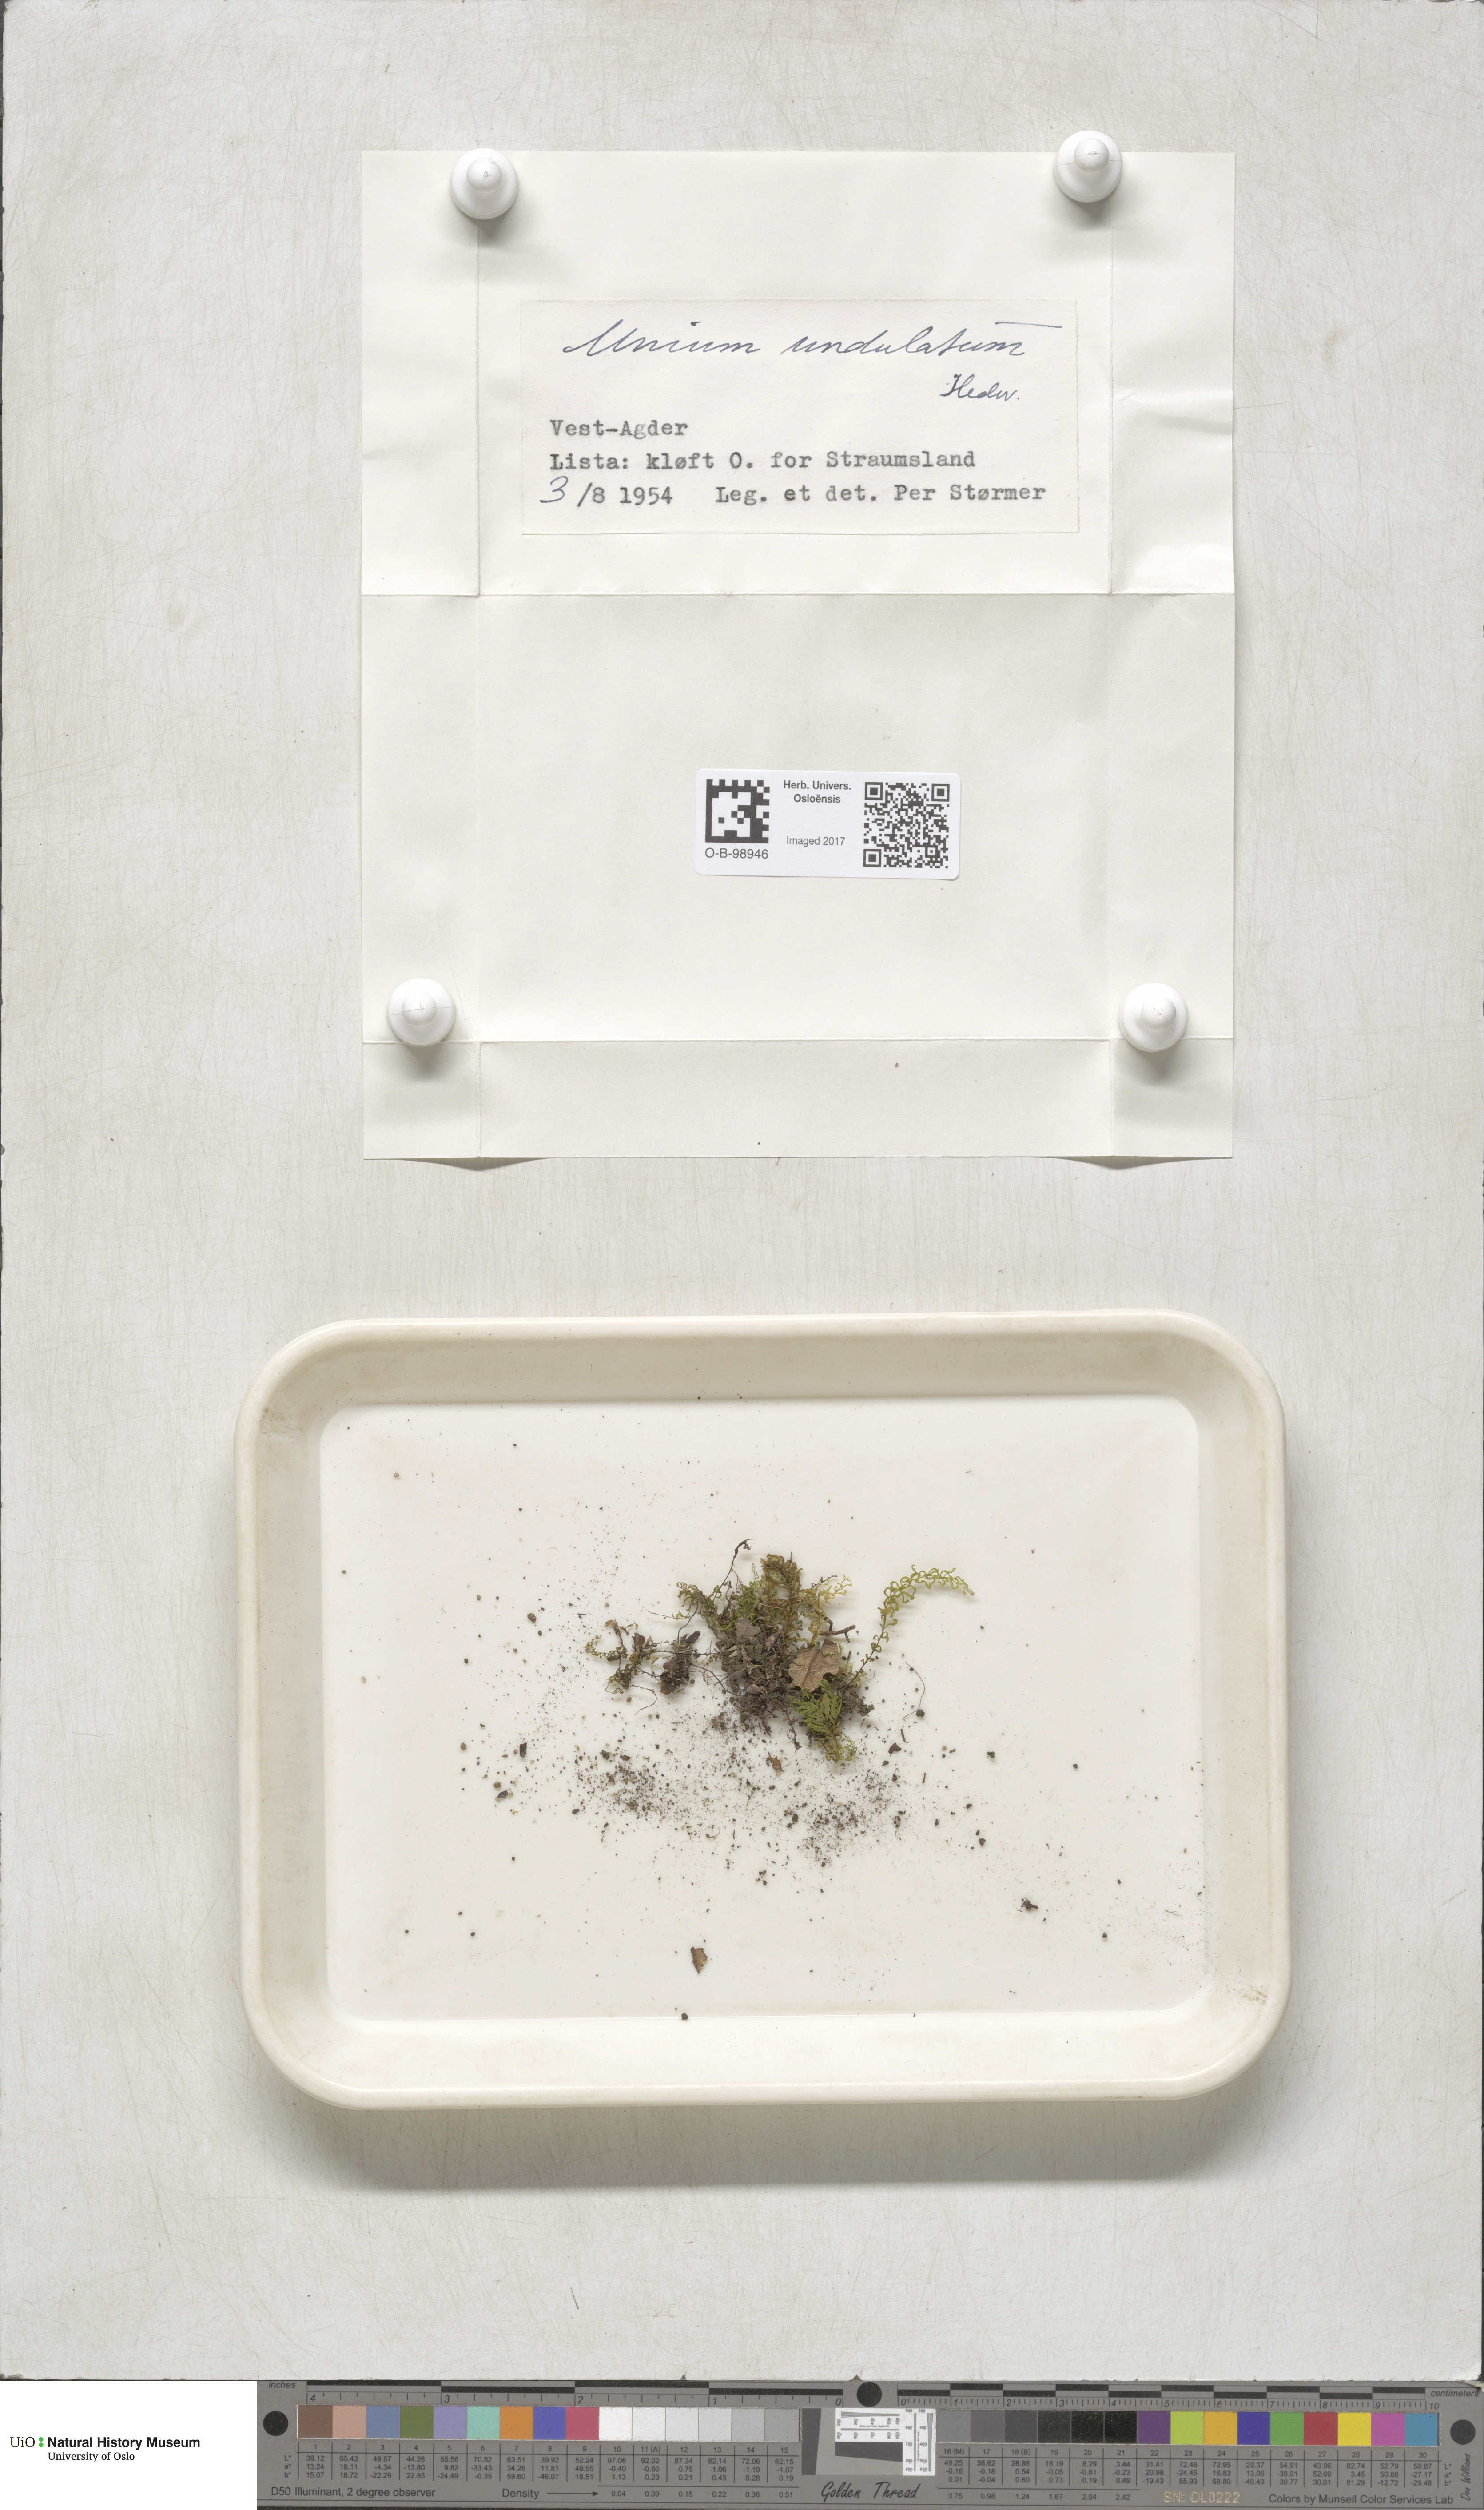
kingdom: Plantae
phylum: Bryophyta
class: Bryopsida
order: Bryales
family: Mniaceae
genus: Plagiomnium
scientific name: Plagiomnium undulatum
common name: Hart's-tongue thyme-moss
